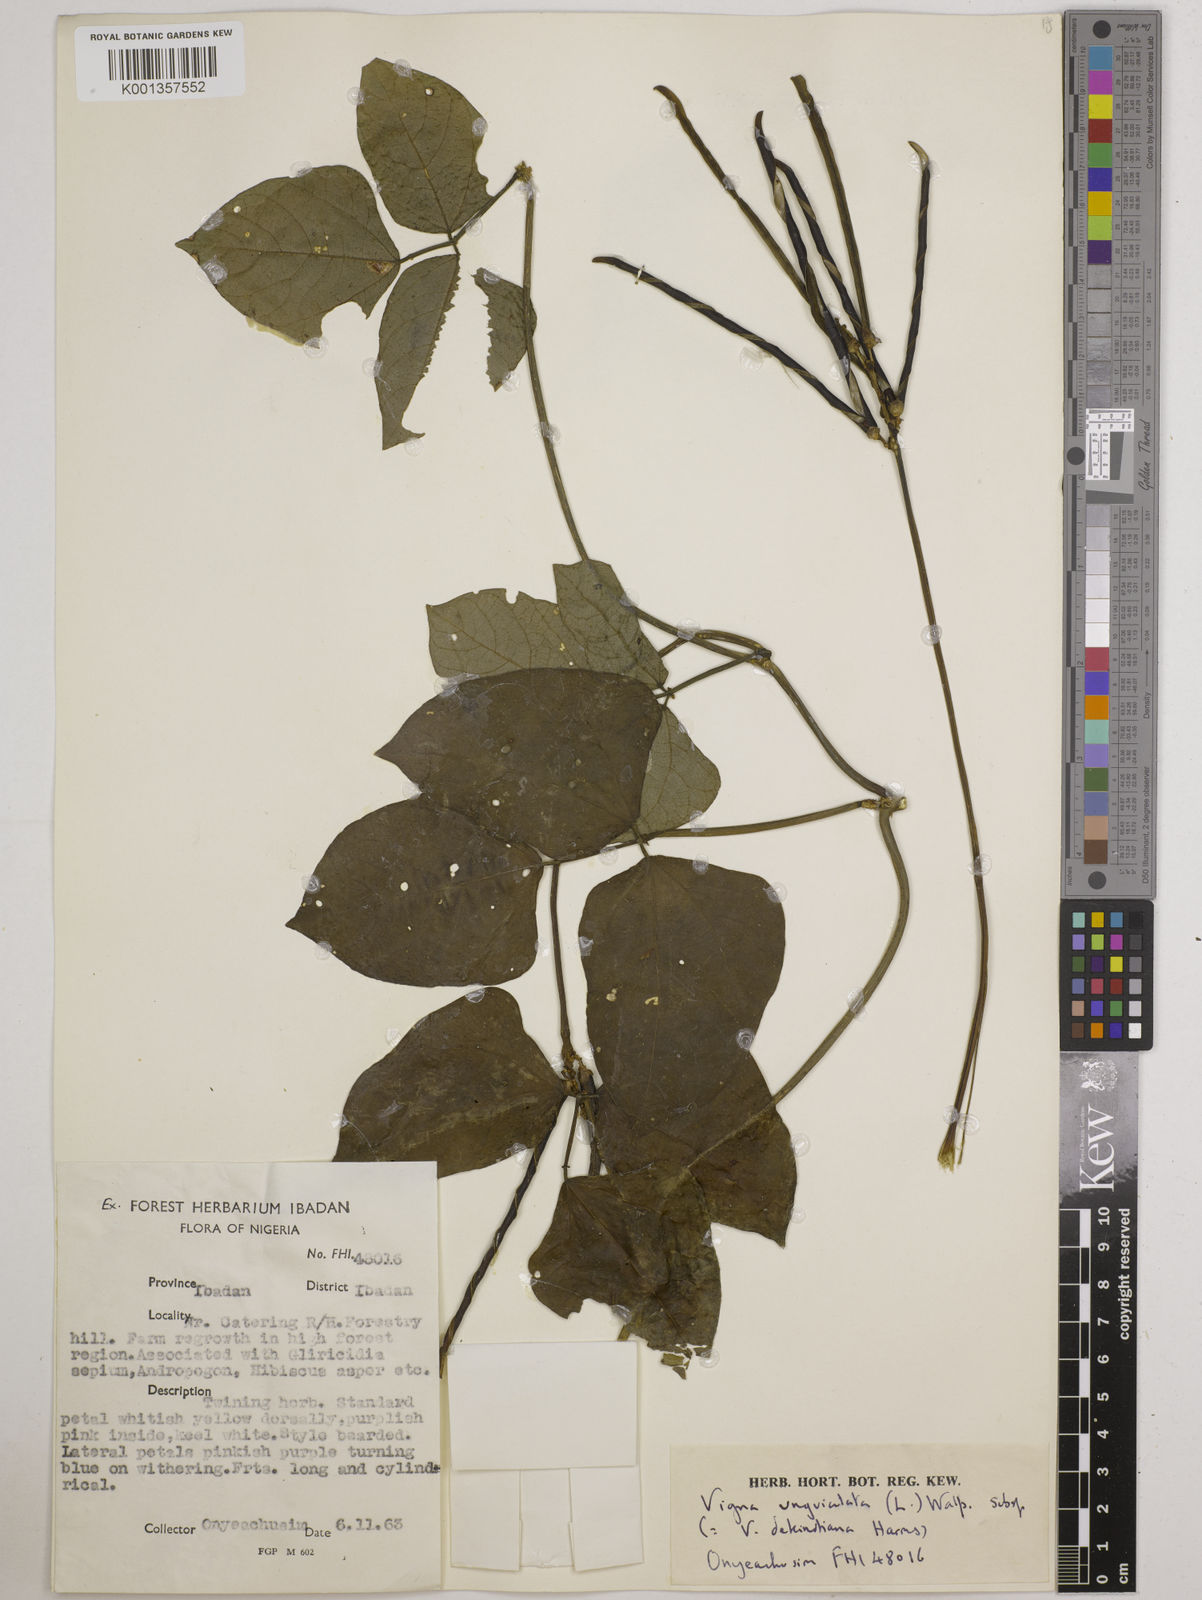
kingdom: Plantae
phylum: Tracheophyta
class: Magnoliopsida
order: Fabales
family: Fabaceae
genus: Vigna
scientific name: Vigna
